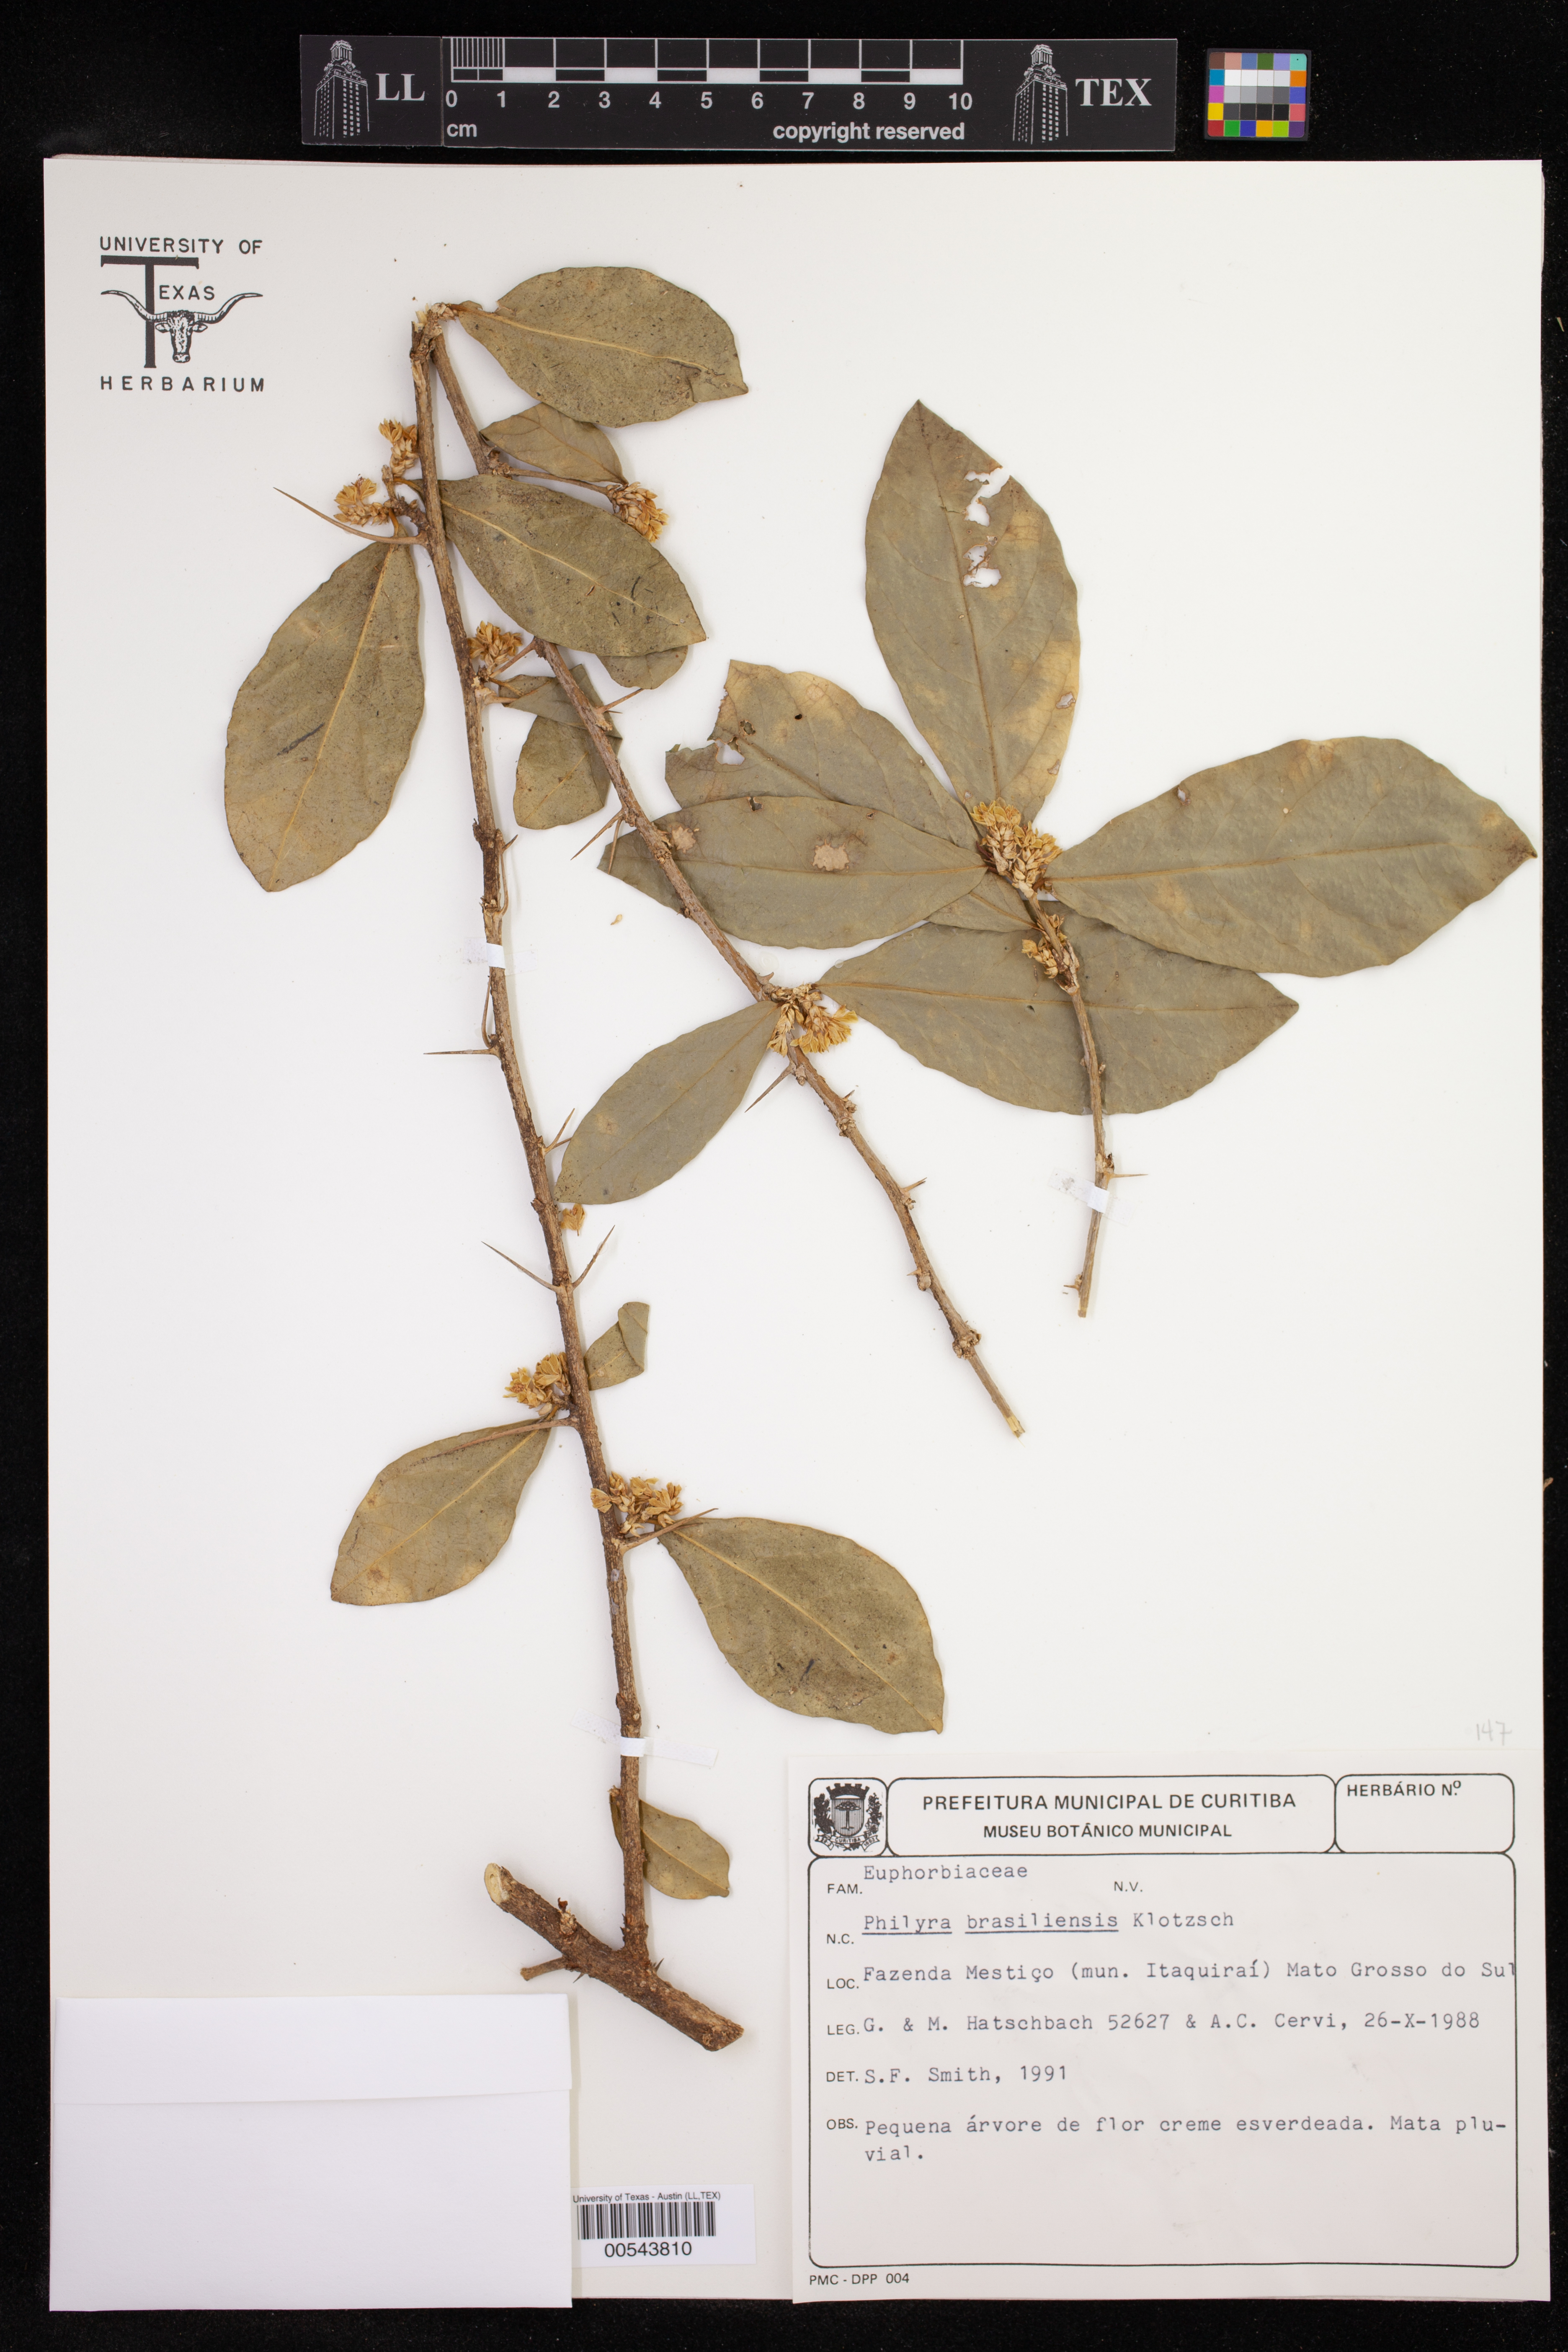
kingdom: Plantae
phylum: Tracheophyta
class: Magnoliopsida
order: Malpighiales
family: Euphorbiaceae
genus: Philyra
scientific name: Philyra brasiliensis
